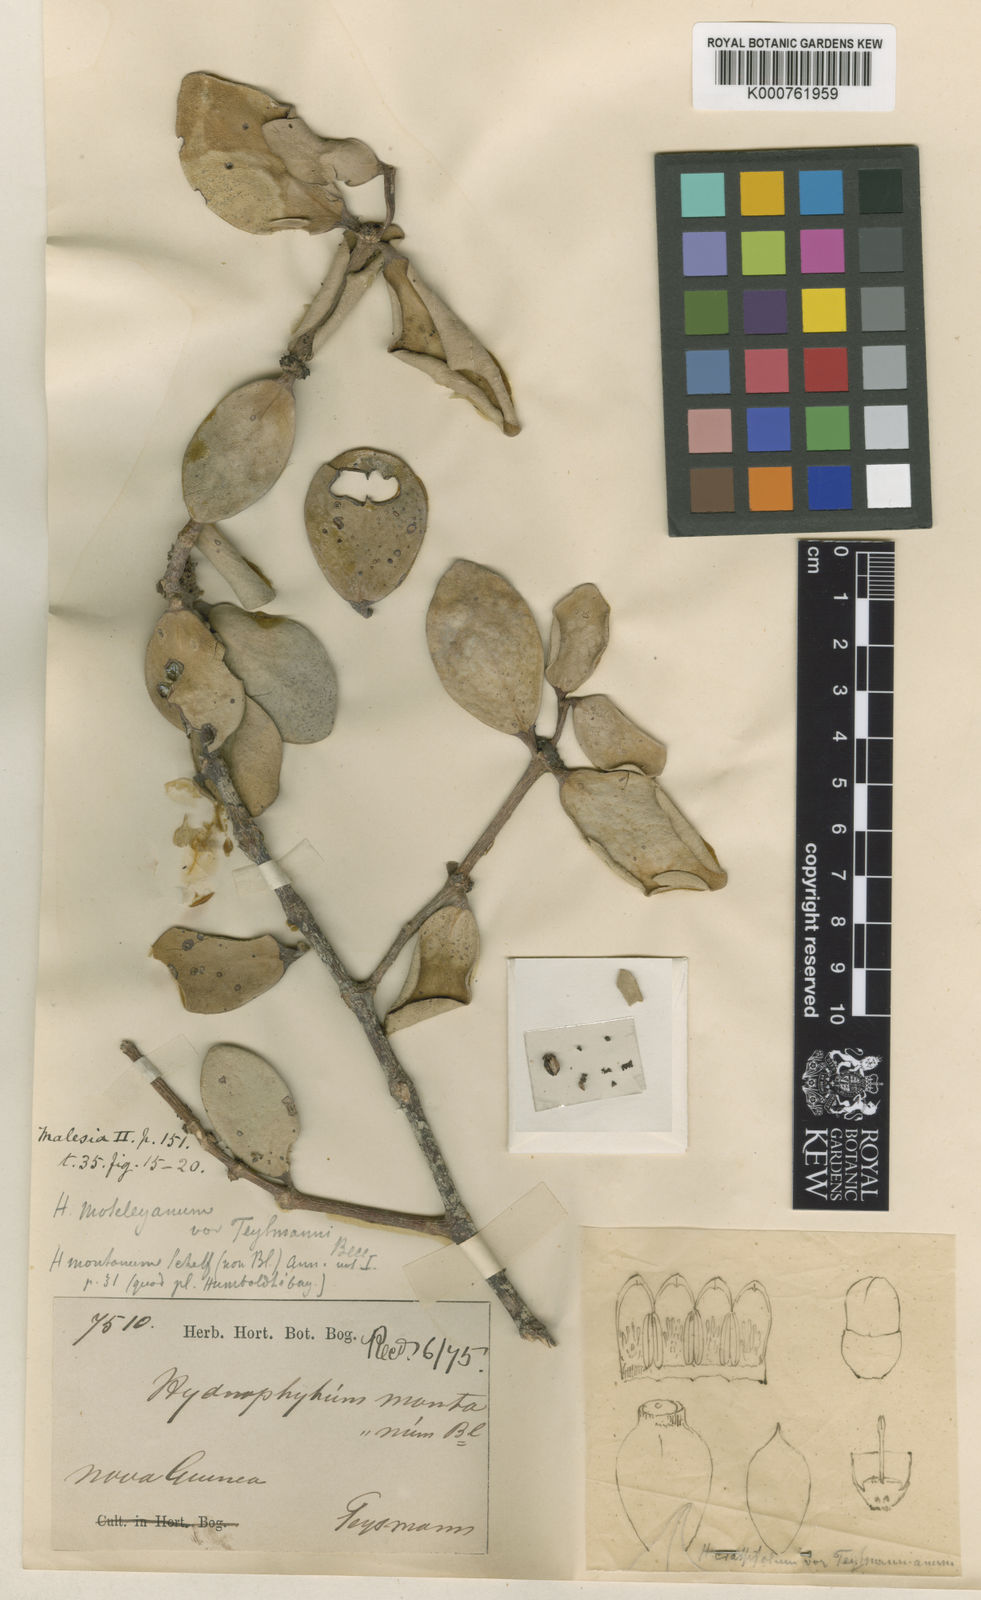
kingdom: Plantae
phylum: Tracheophyta
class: Magnoliopsida
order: Gentianales
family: Rubiaceae
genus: Hydnophytum
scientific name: Hydnophytum moseleyanum
